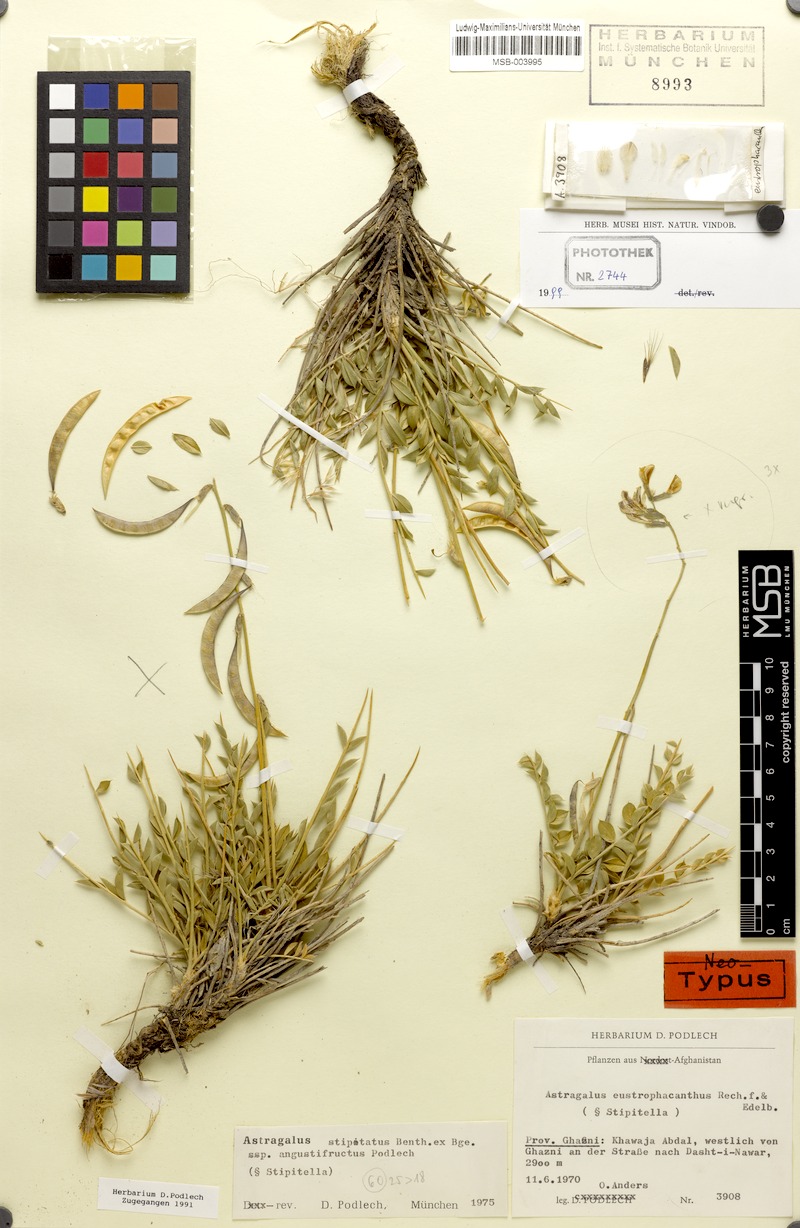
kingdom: Plantae
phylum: Tracheophyta
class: Magnoliopsida
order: Fabales
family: Fabaceae
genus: Astragalus
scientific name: Astragalus eustrophacanthus
